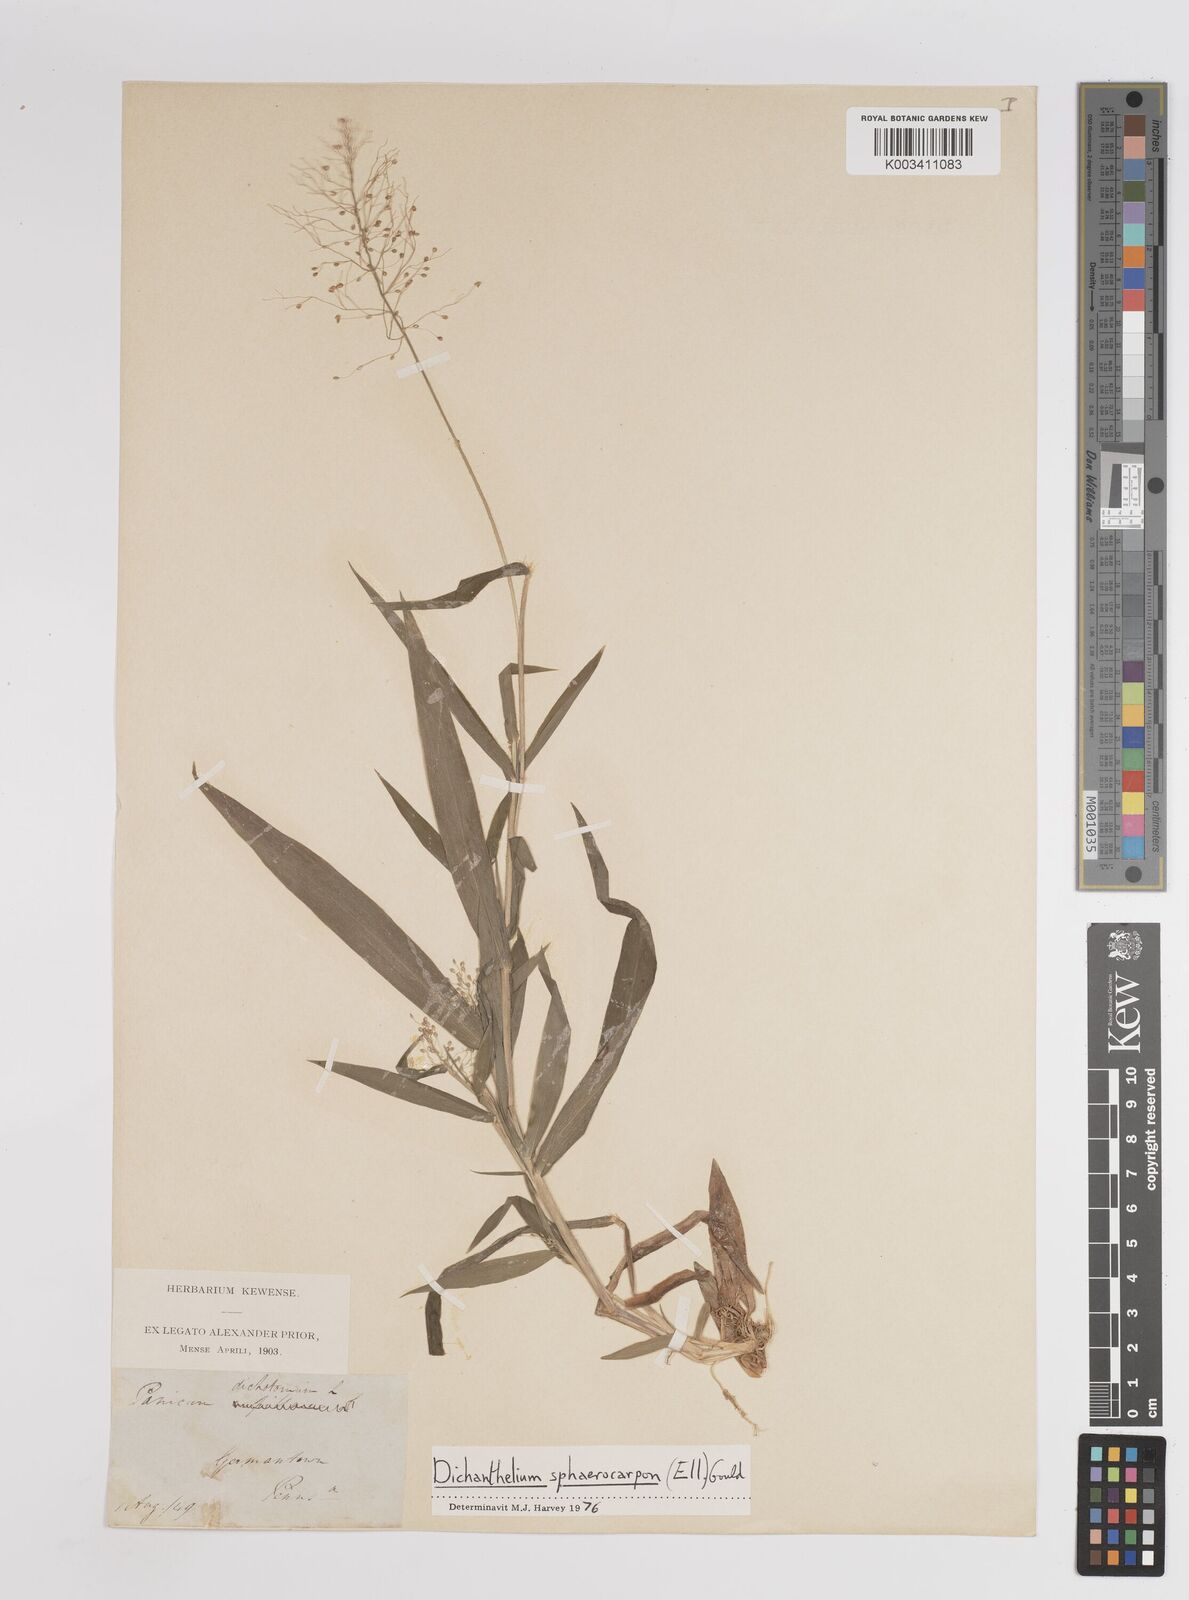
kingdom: Plantae
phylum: Tracheophyta
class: Liliopsida
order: Poales
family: Poaceae
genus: Dichanthelium
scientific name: Dichanthelium sphaerocarpon
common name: Round-fruited panicgrass
